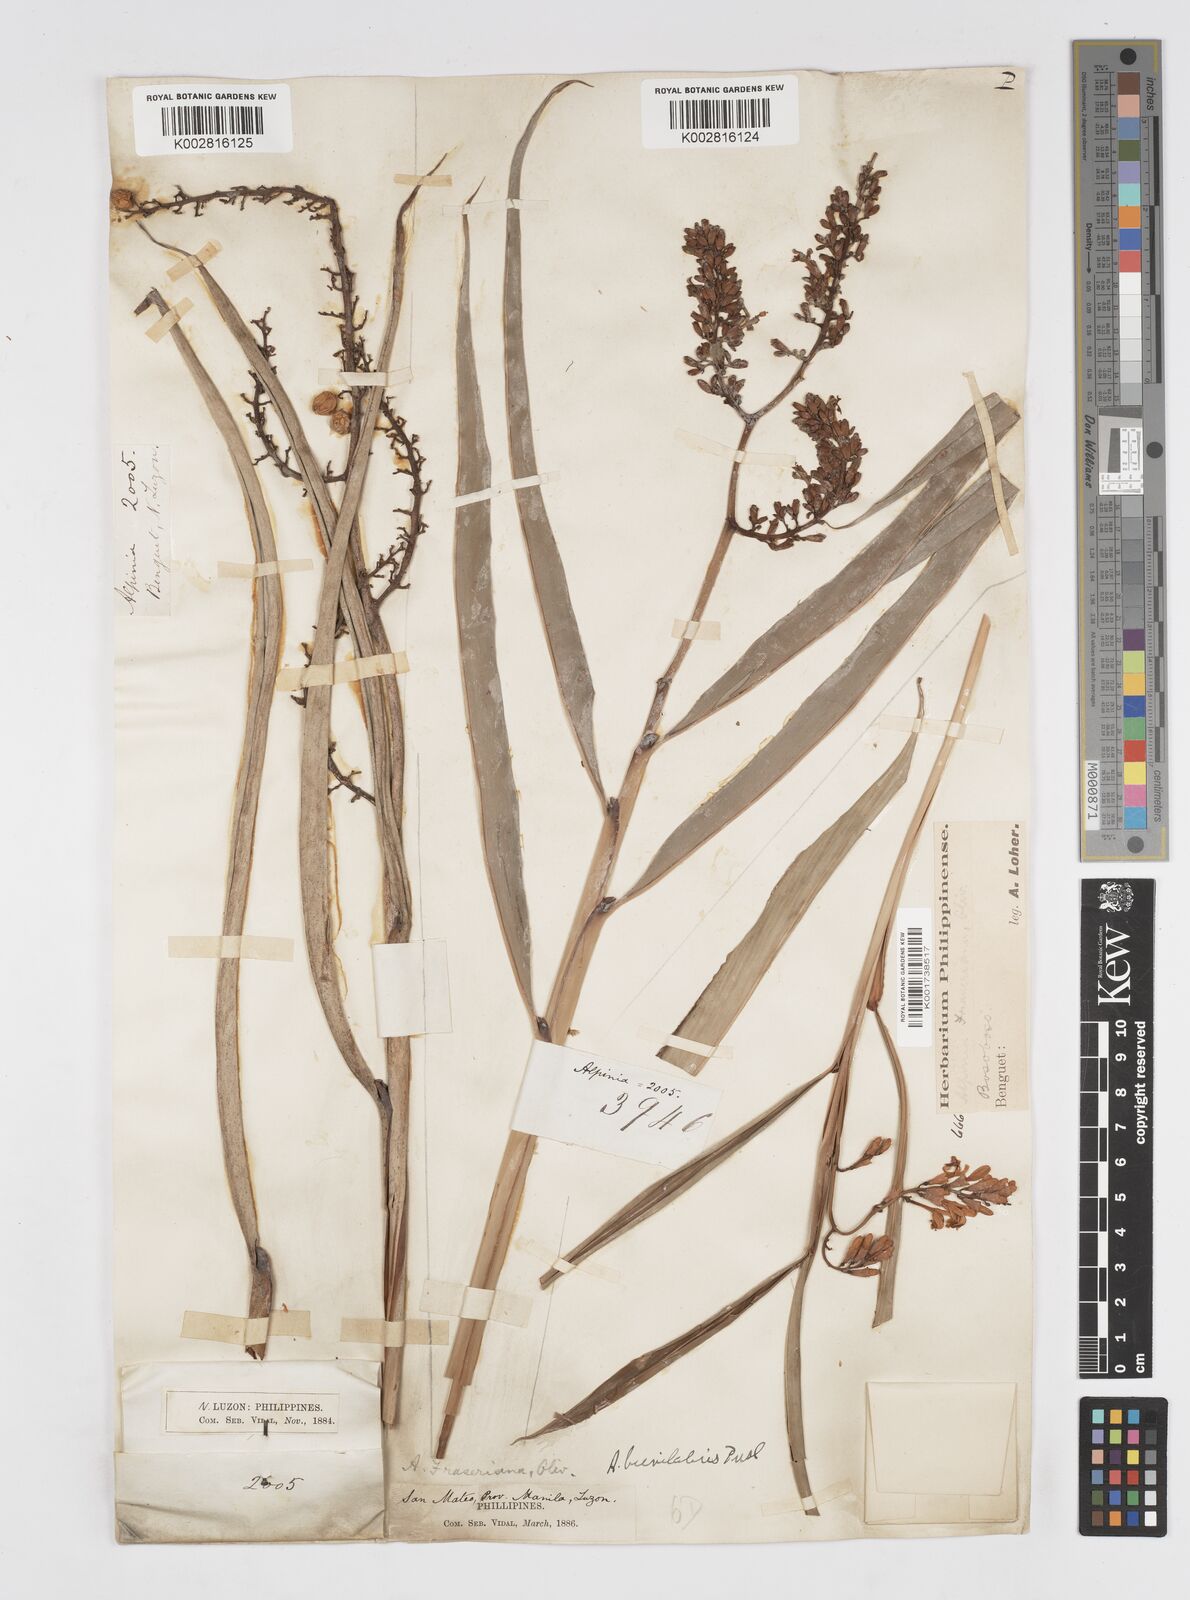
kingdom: Plantae
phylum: Tracheophyta
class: Liliopsida
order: Zingiberales
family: Zingiberaceae
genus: Alpinia
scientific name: Alpinia brevilabris
